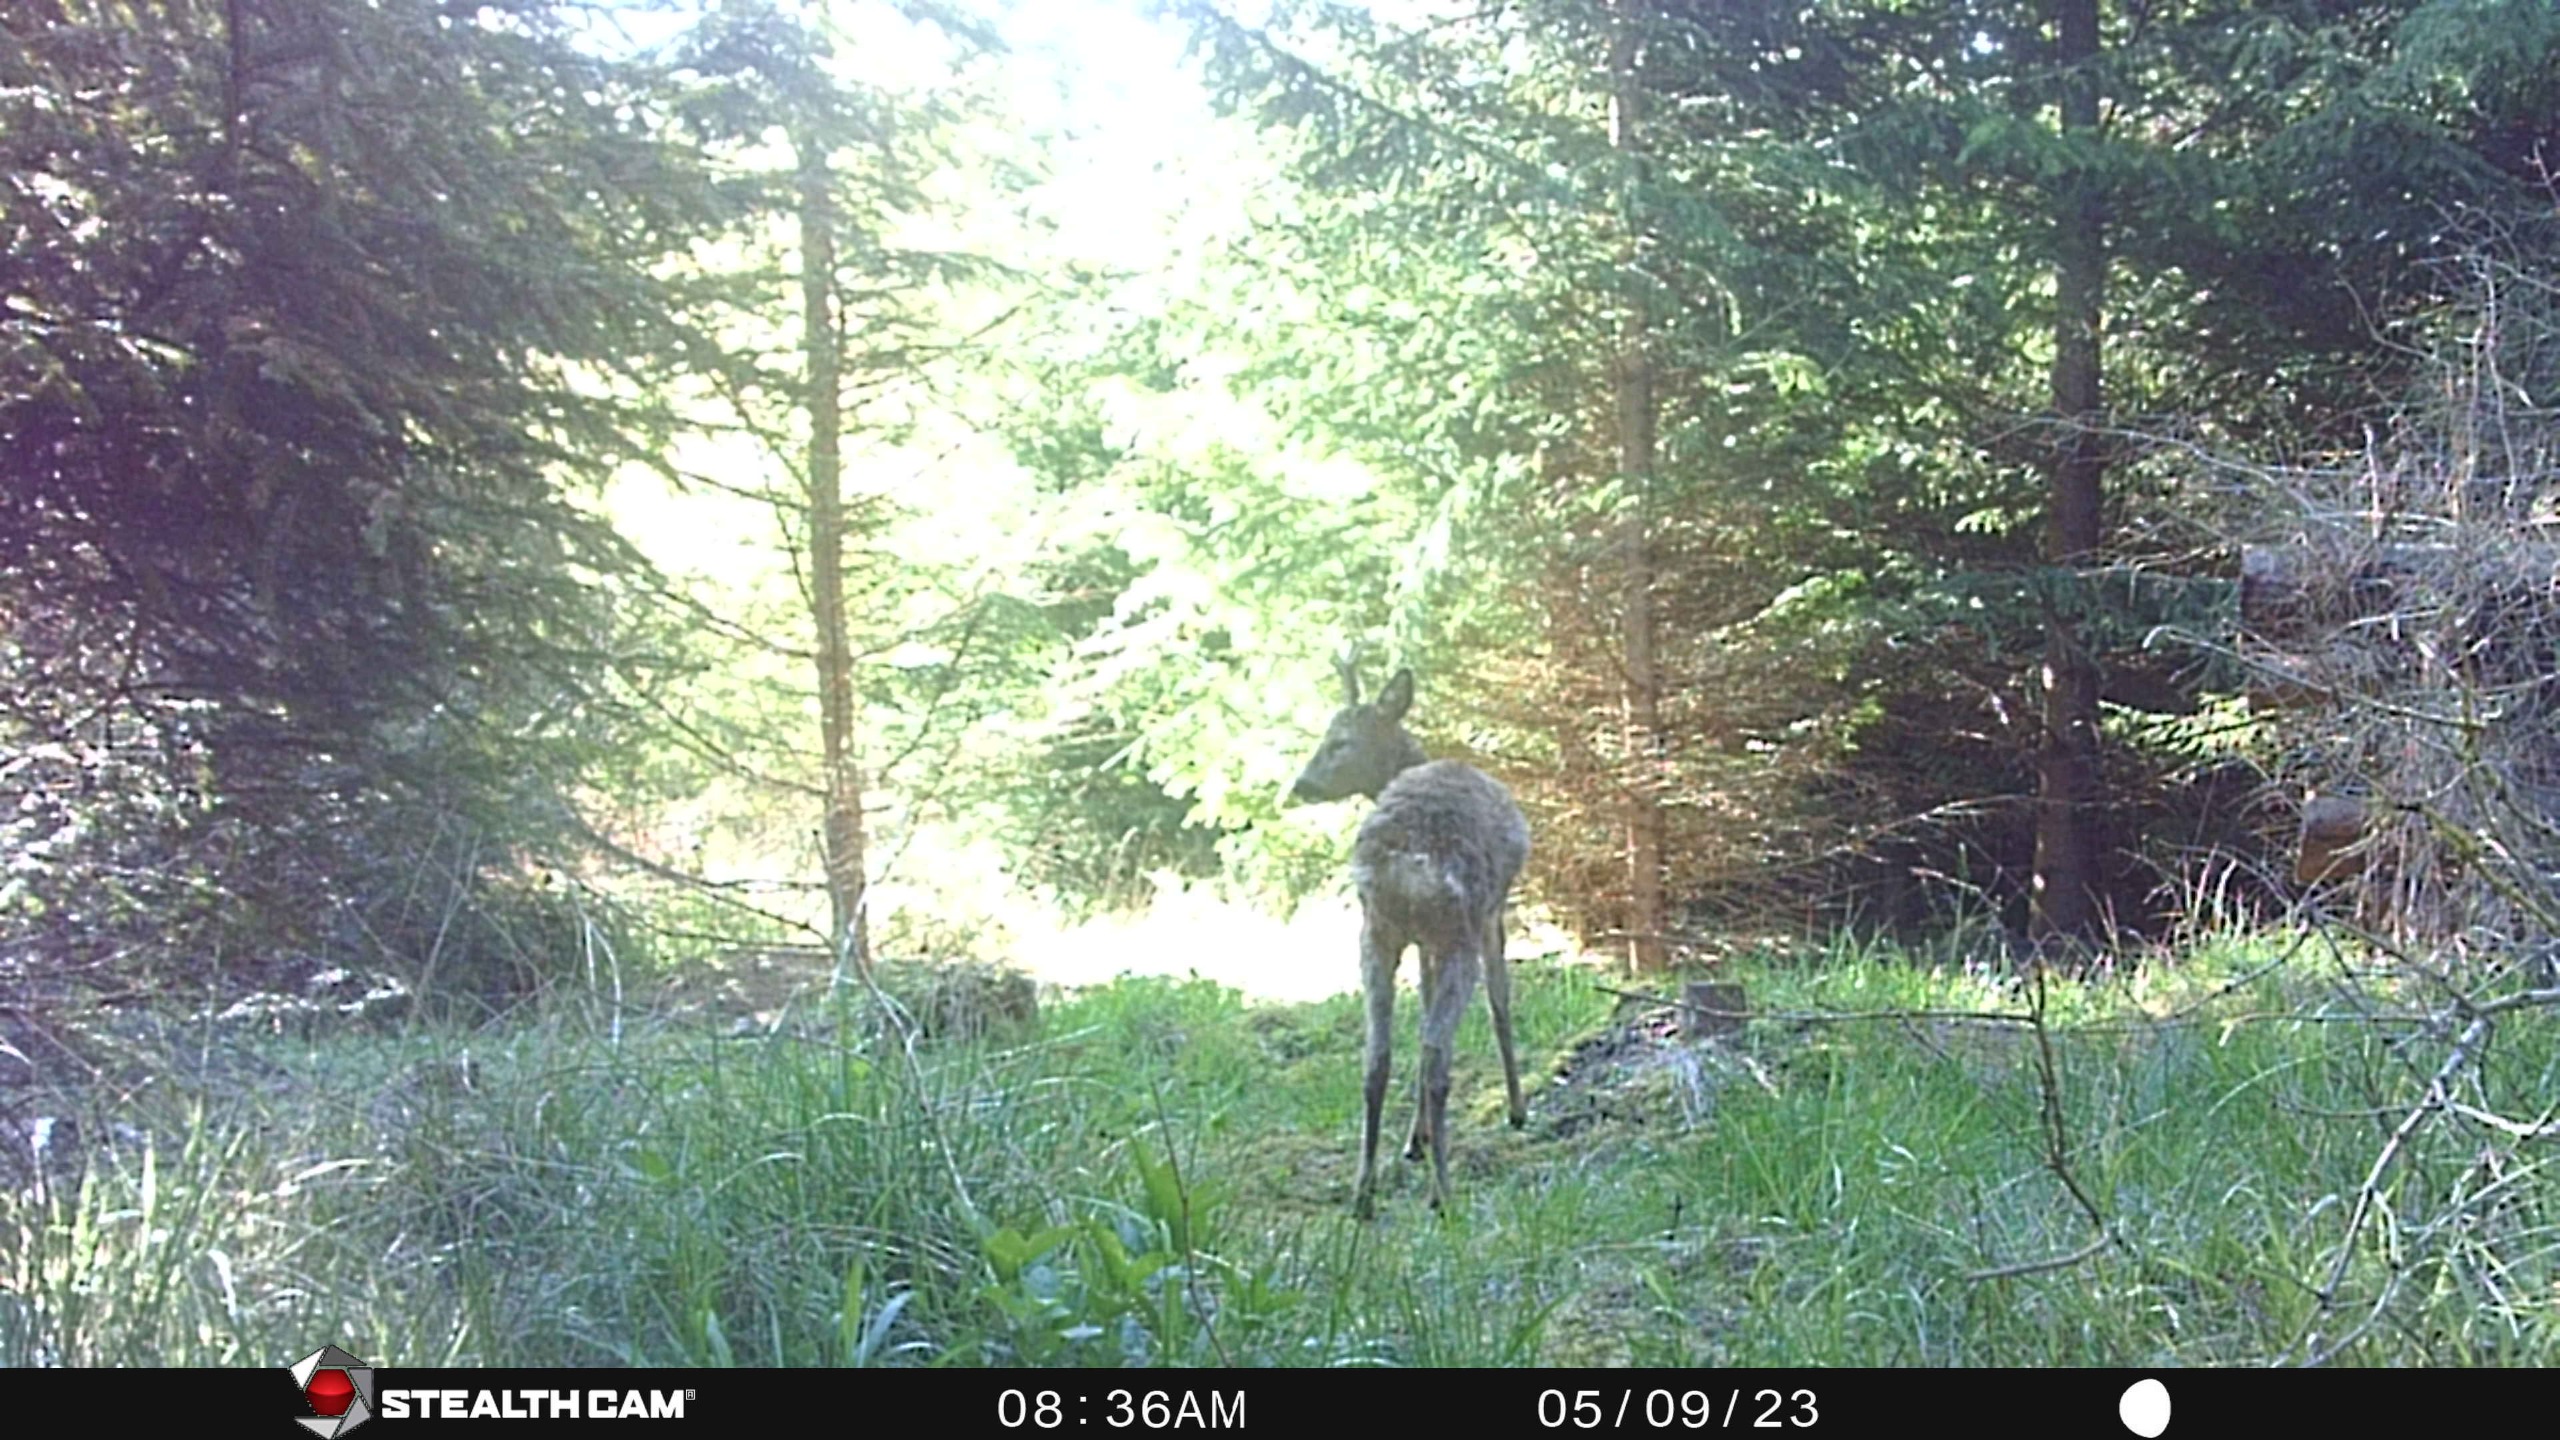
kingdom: Animalia
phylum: Chordata
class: Mammalia
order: Artiodactyla
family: Cervidae
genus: Capreolus
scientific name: Capreolus capreolus
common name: Rådyr
